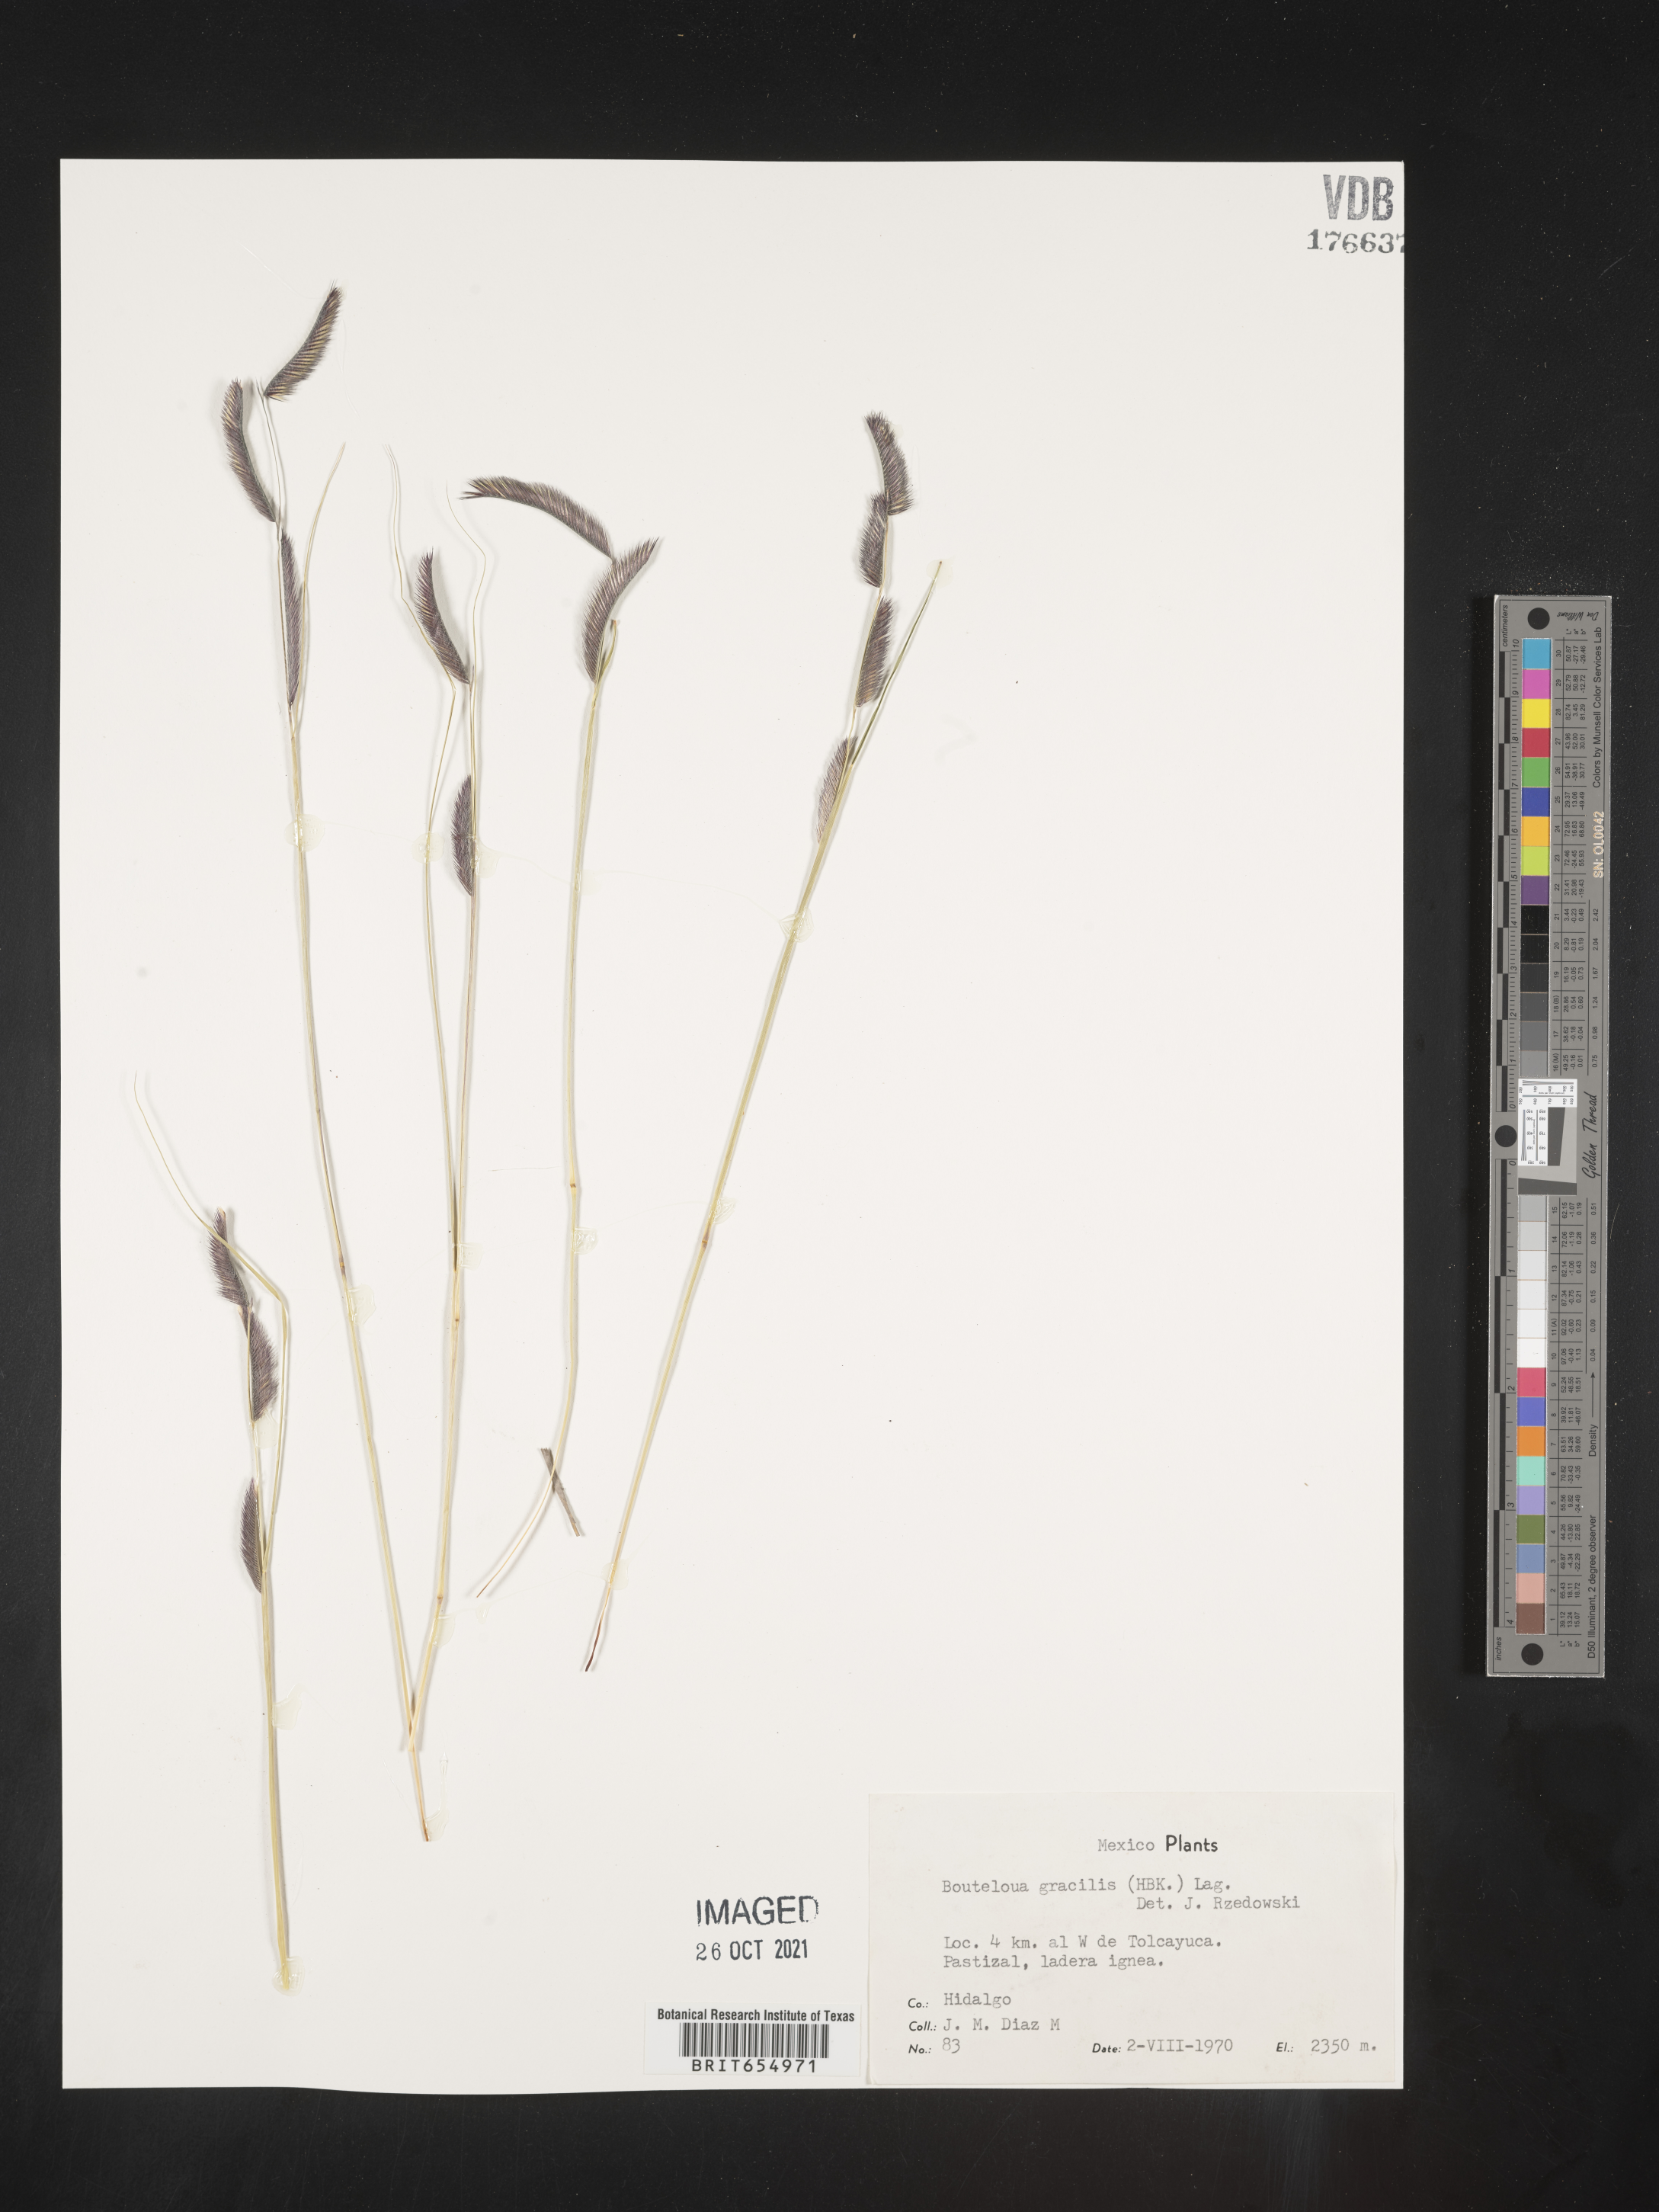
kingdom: Plantae
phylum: Tracheophyta
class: Liliopsida
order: Poales
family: Poaceae
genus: Bouteloua
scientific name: Bouteloua
